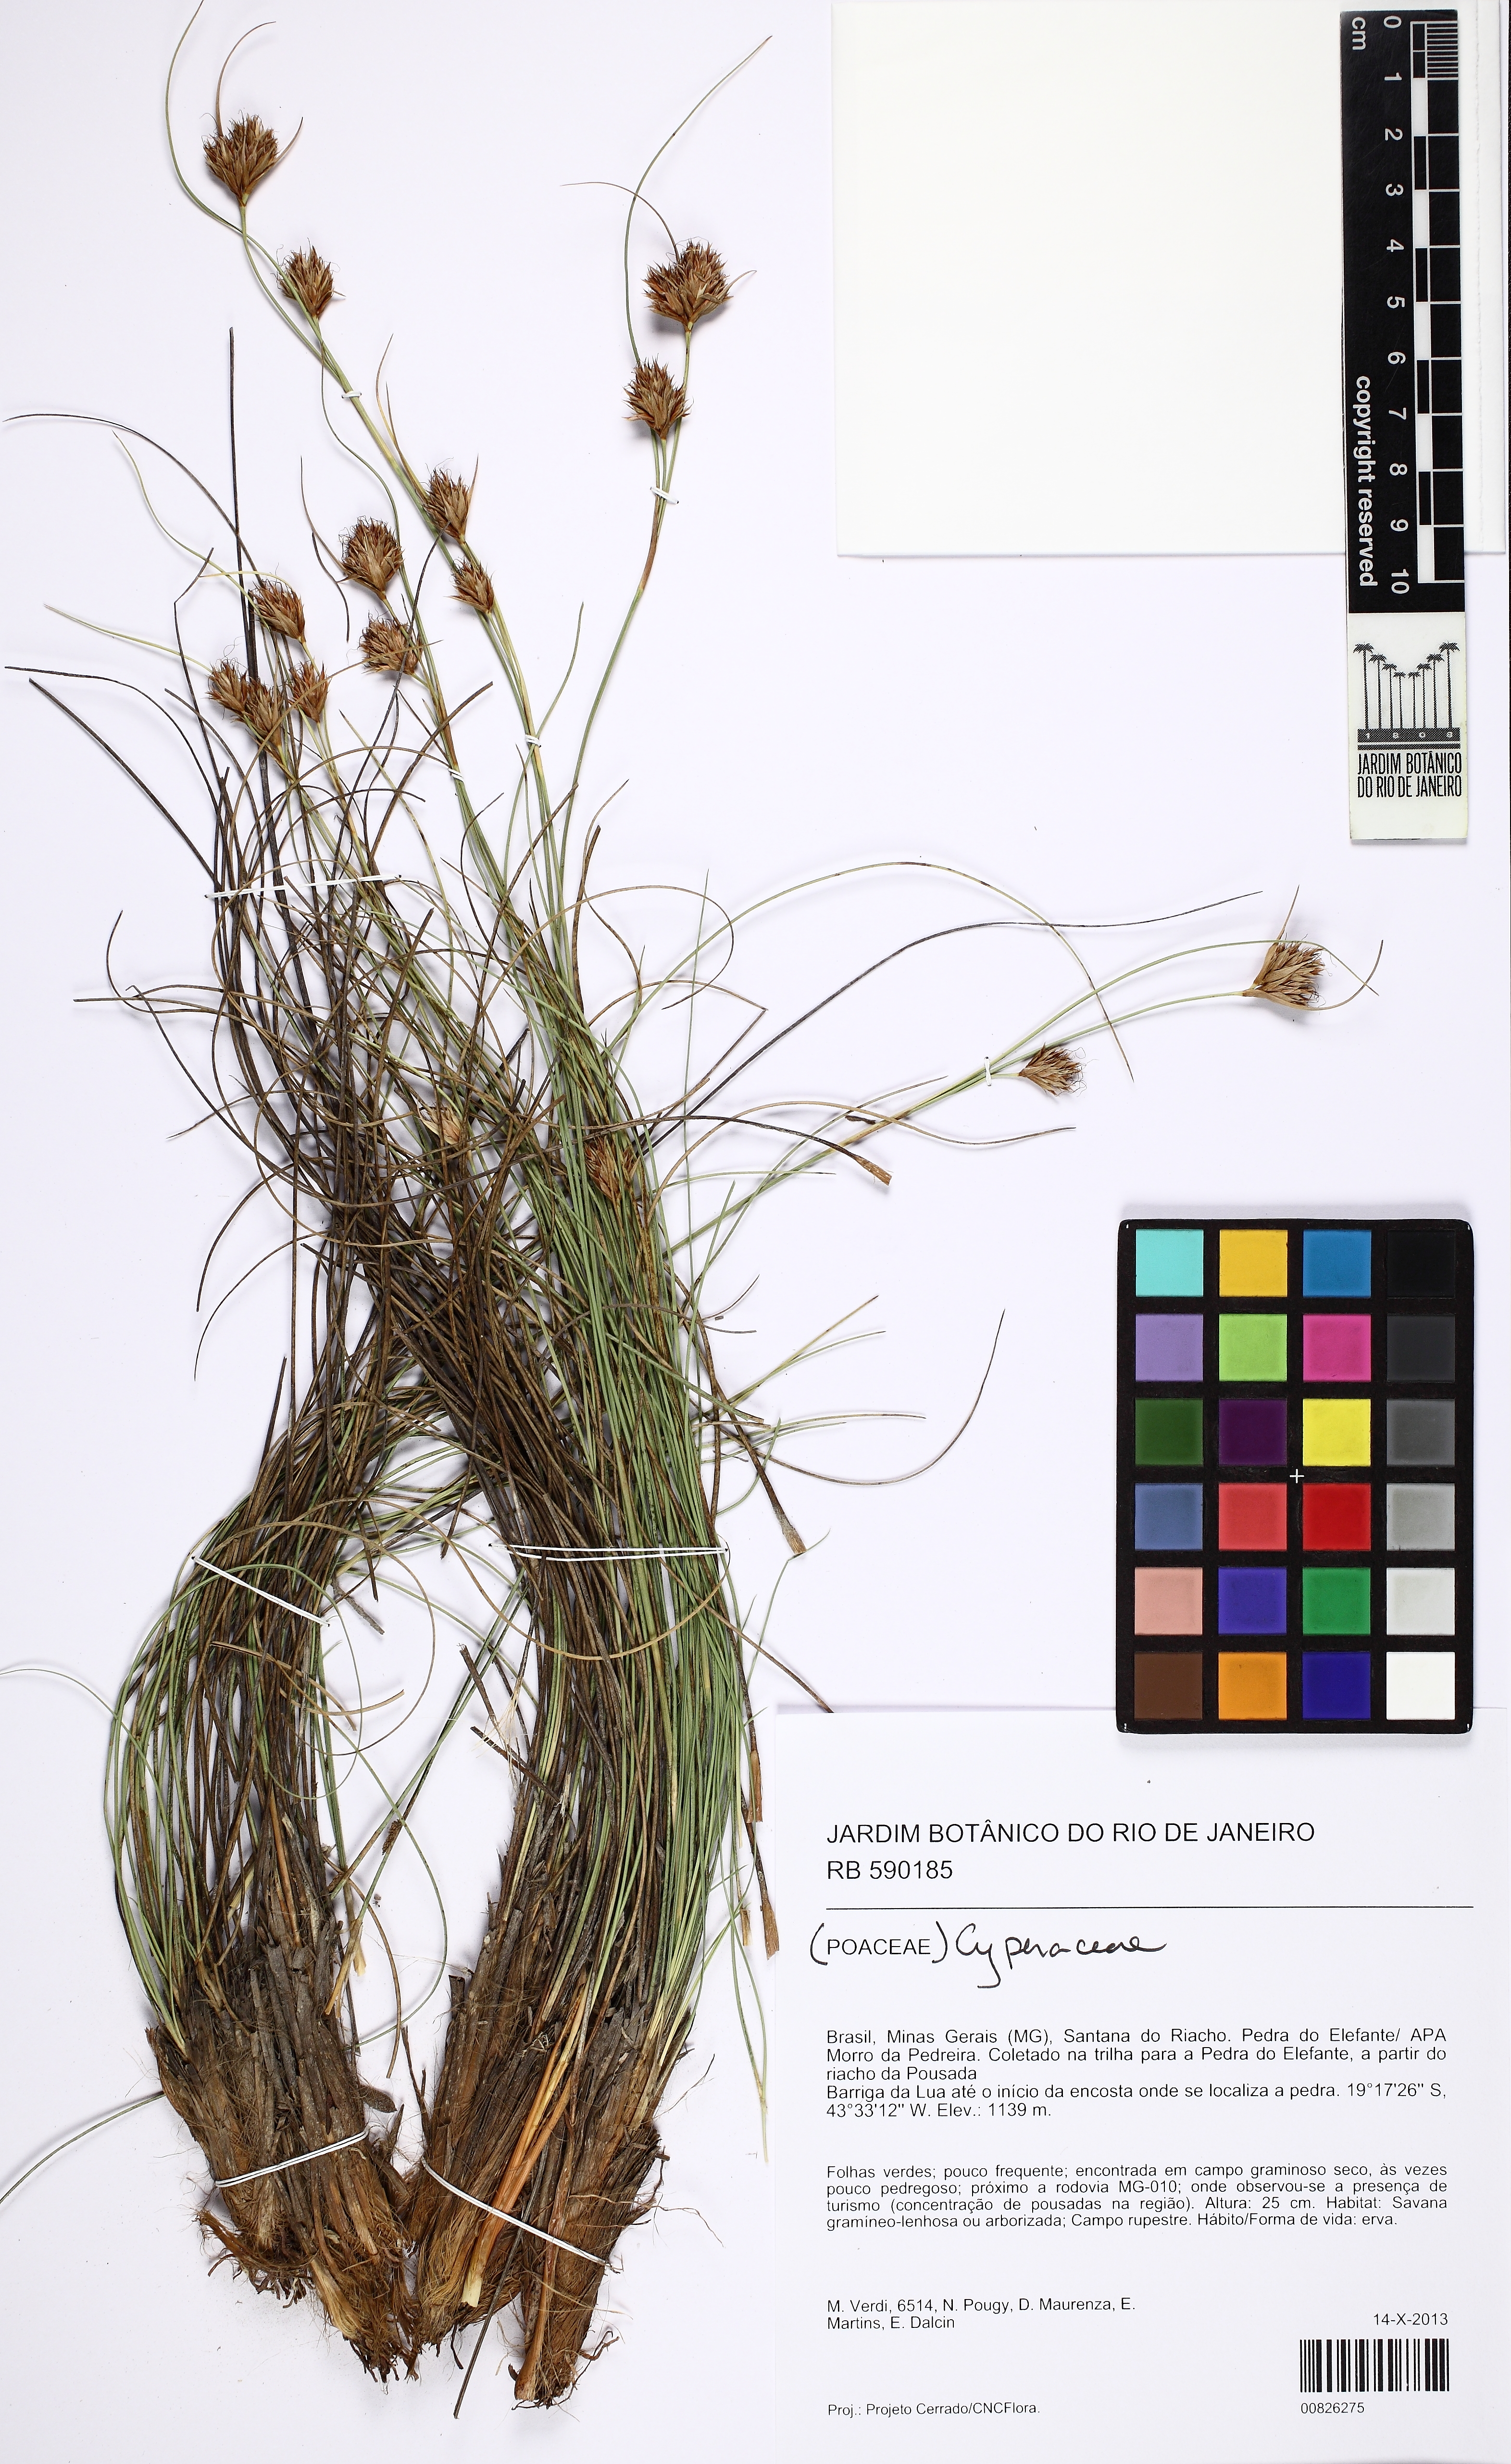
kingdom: Plantae
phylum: Tracheophyta
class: Liliopsida
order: Poales
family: Cyperaceae
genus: Rhynchospora
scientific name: Rhynchospora
